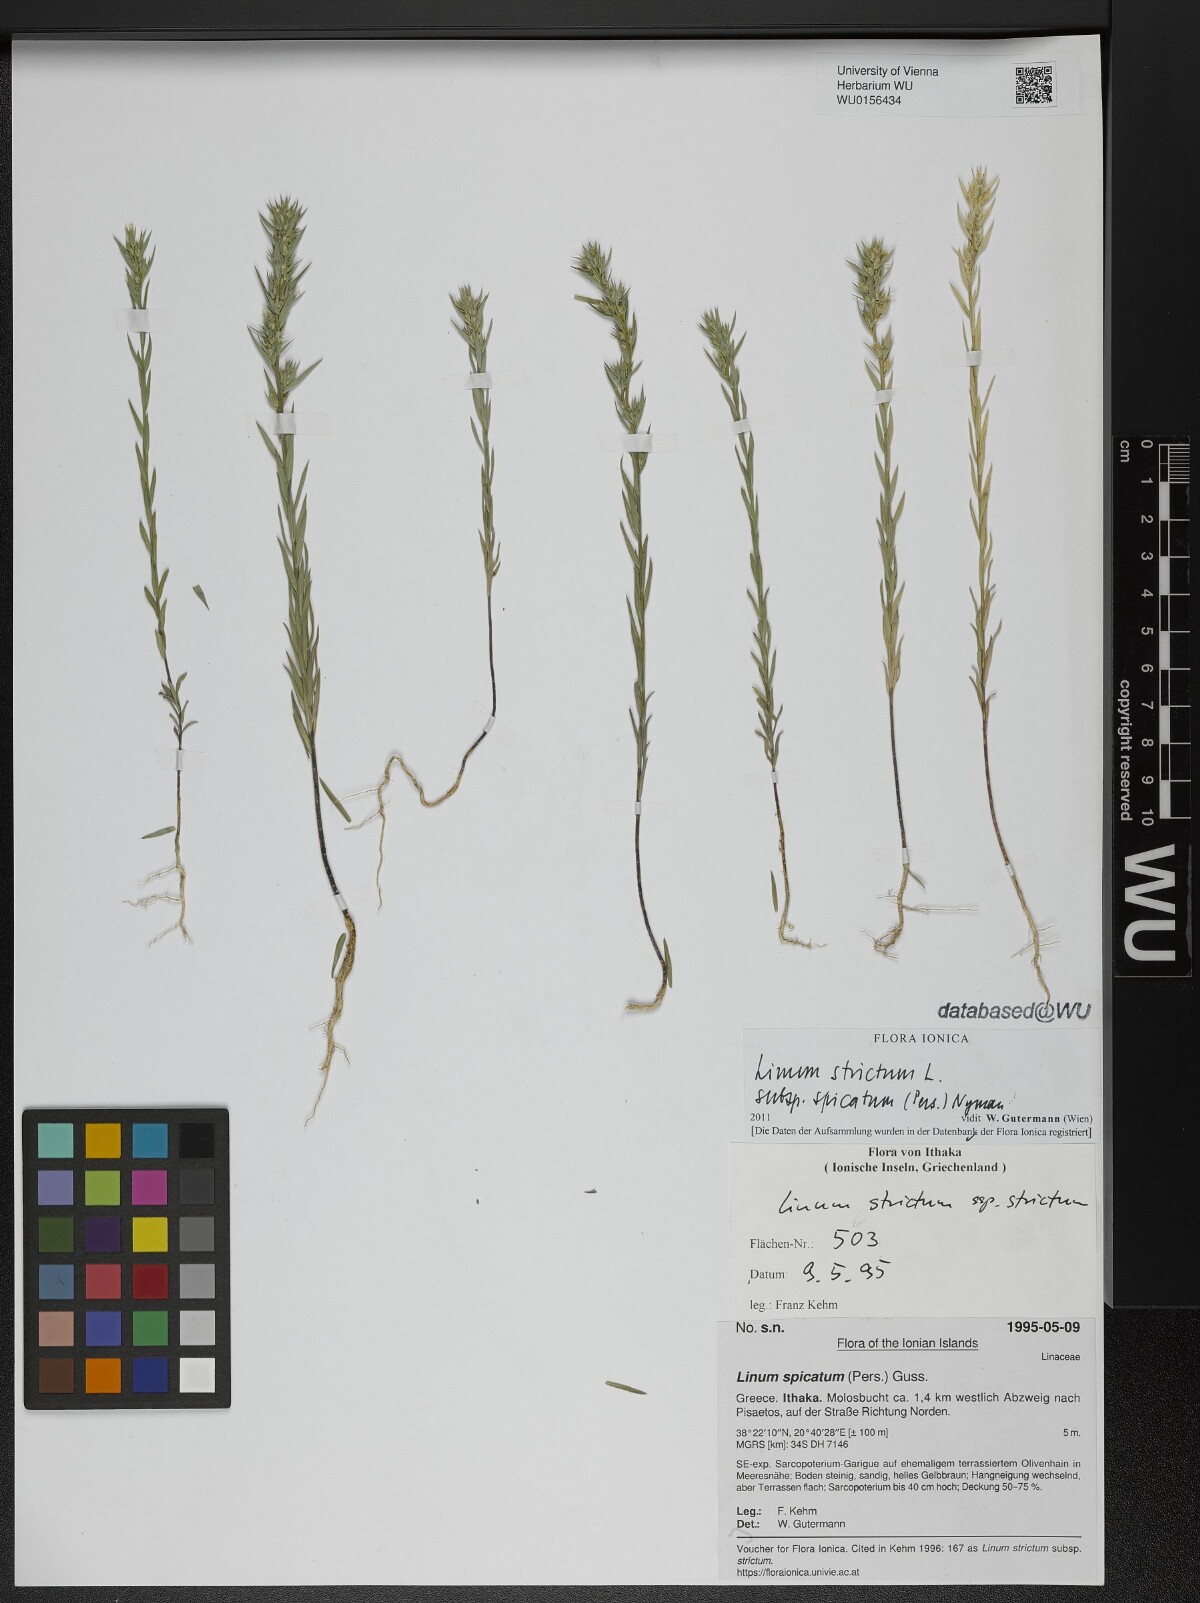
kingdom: Plantae
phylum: Tracheophyta
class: Magnoliopsida
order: Malpighiales
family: Linaceae
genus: Linum
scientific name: Linum strictum
